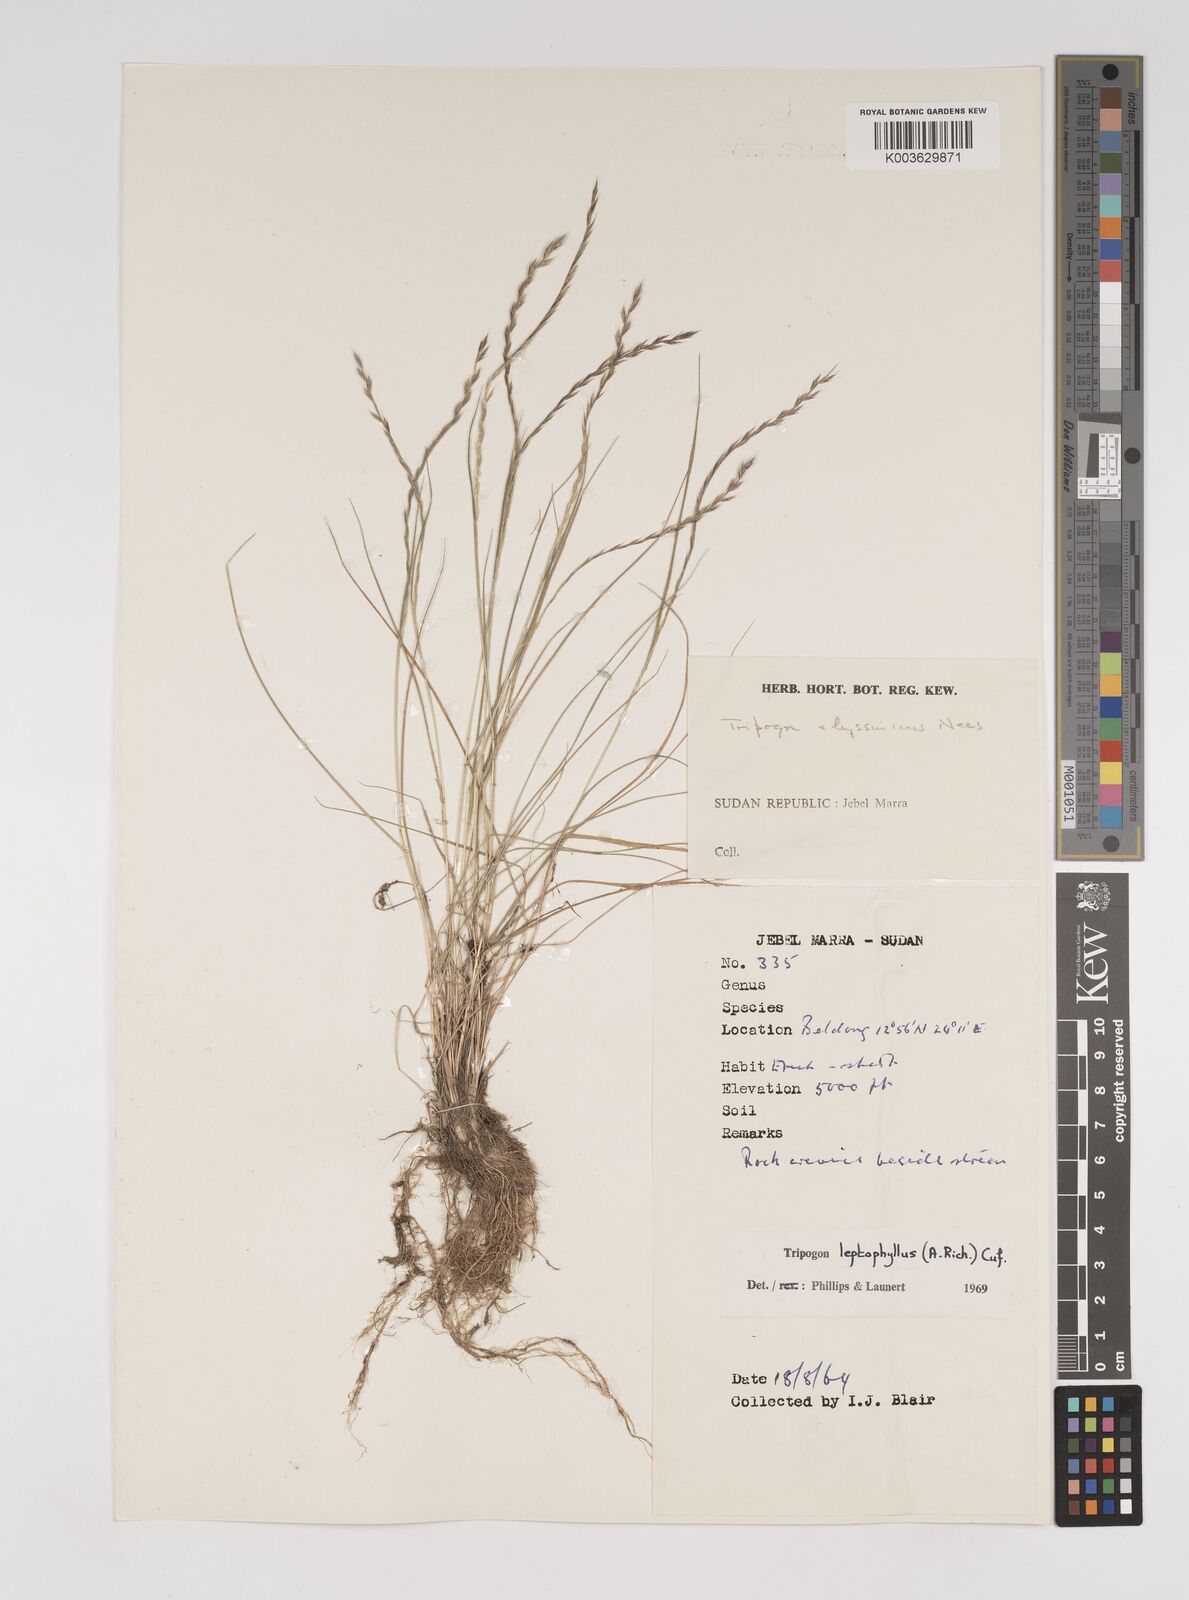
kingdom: Plantae
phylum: Tracheophyta
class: Liliopsida
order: Poales
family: Poaceae
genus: Tripogon
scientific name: Tripogon leptophyllus
